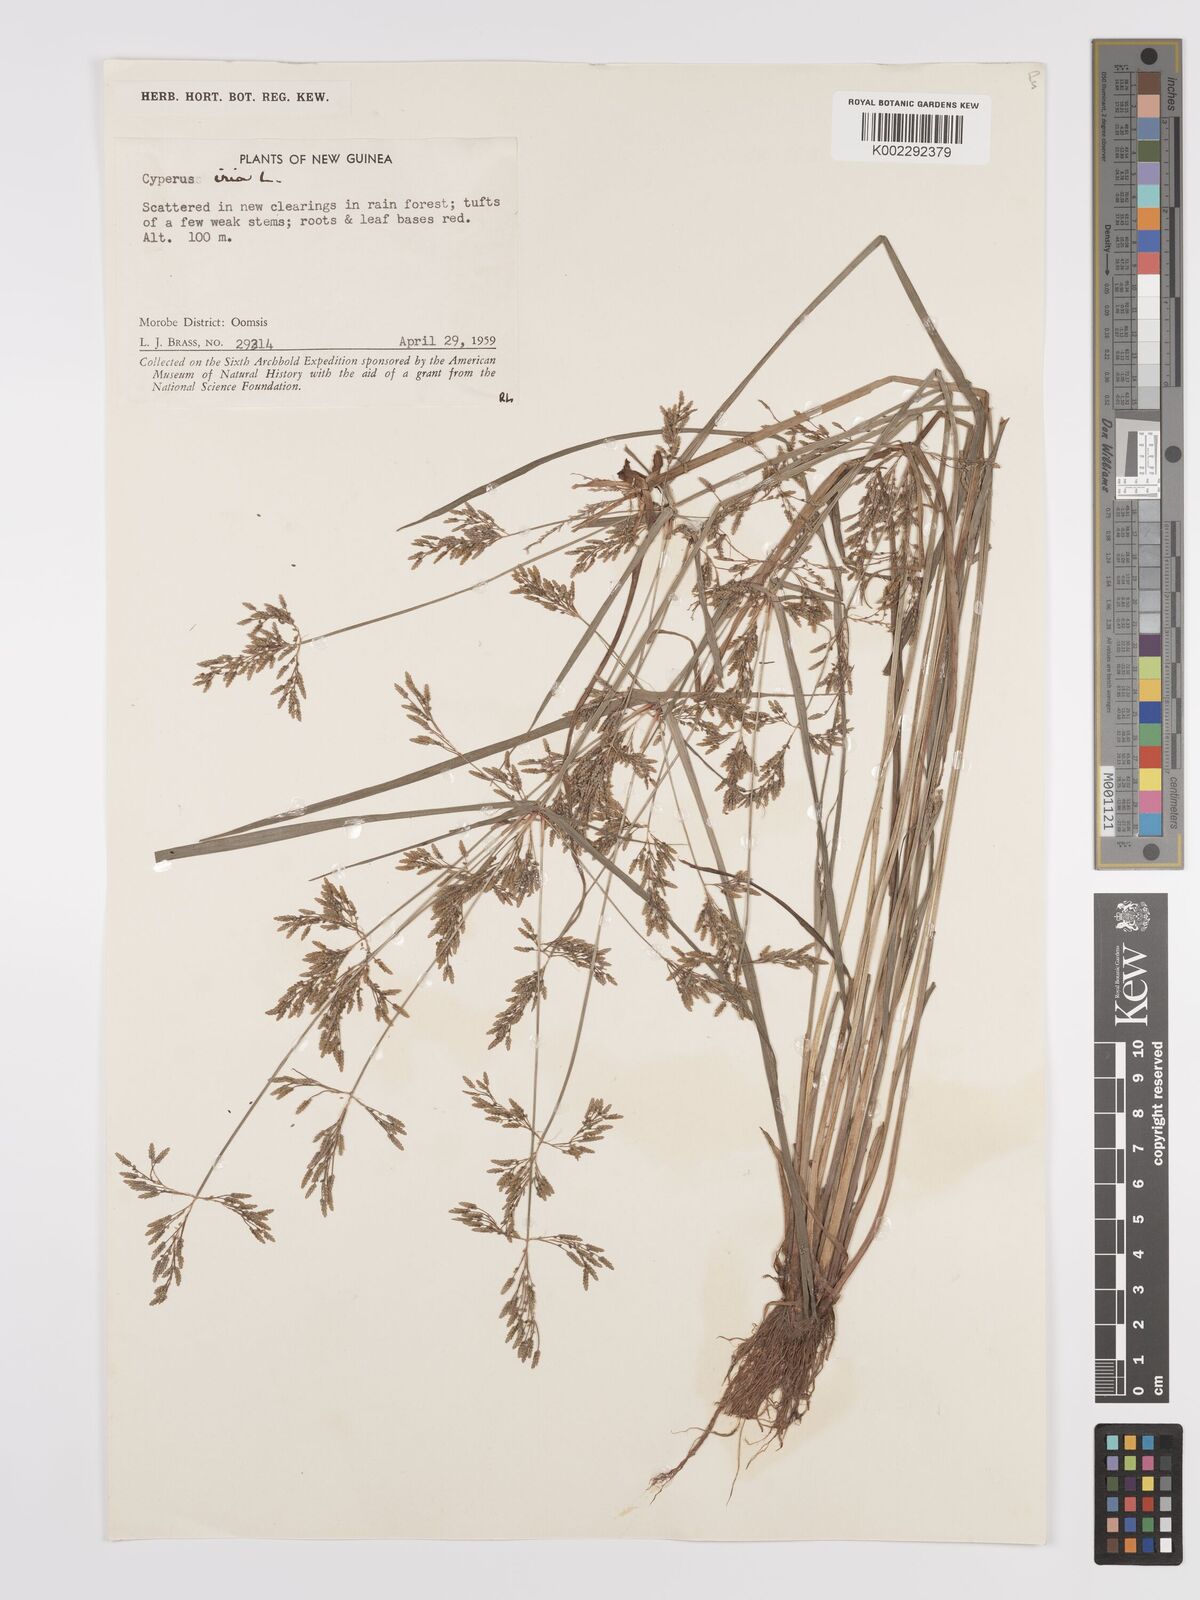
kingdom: Plantae
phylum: Tracheophyta
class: Liliopsida
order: Poales
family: Cyperaceae
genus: Cyperus
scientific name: Cyperus iria
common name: Ricefield flatsedge
